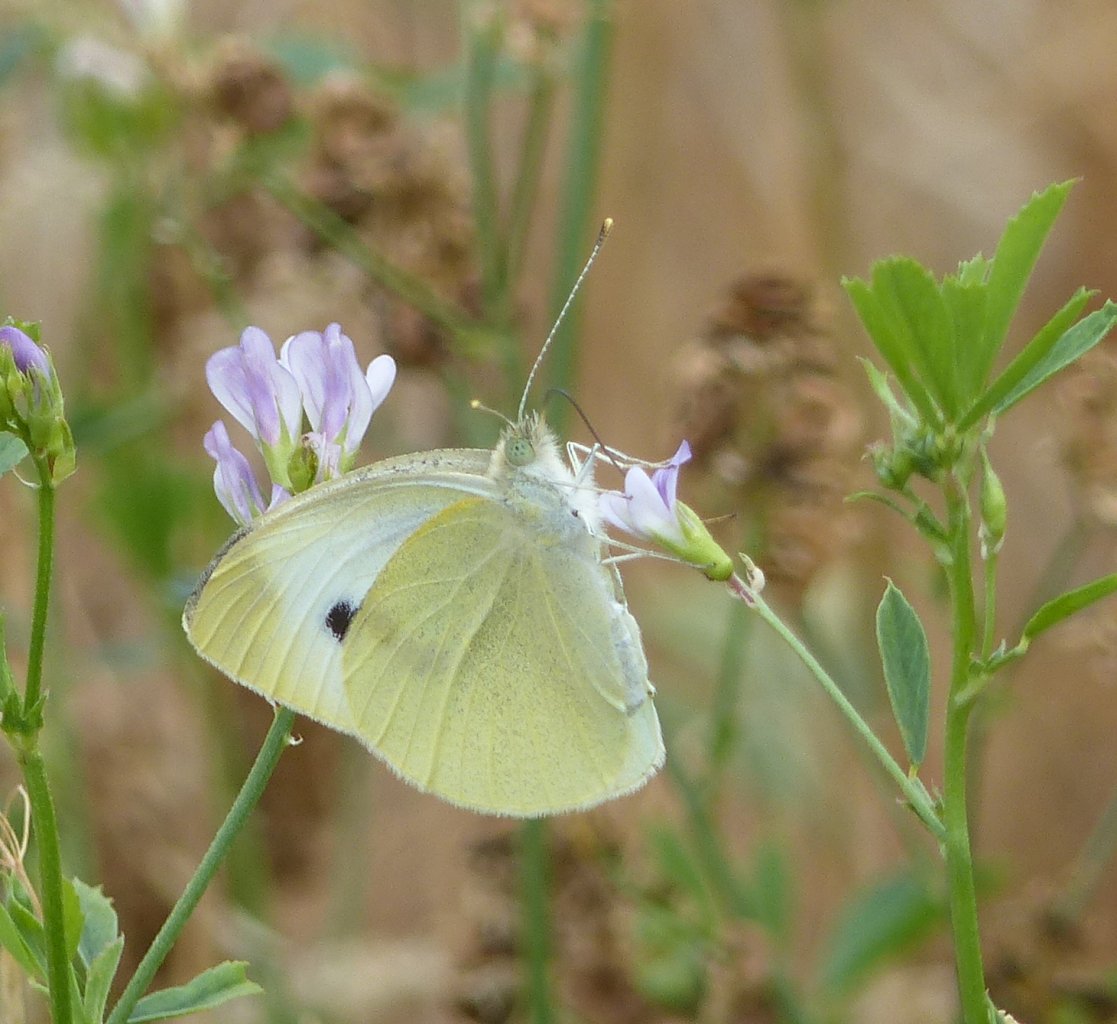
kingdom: Animalia
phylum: Arthropoda
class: Insecta
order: Lepidoptera
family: Pieridae
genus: Pieris
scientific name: Pieris rapae
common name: Cabbage White
